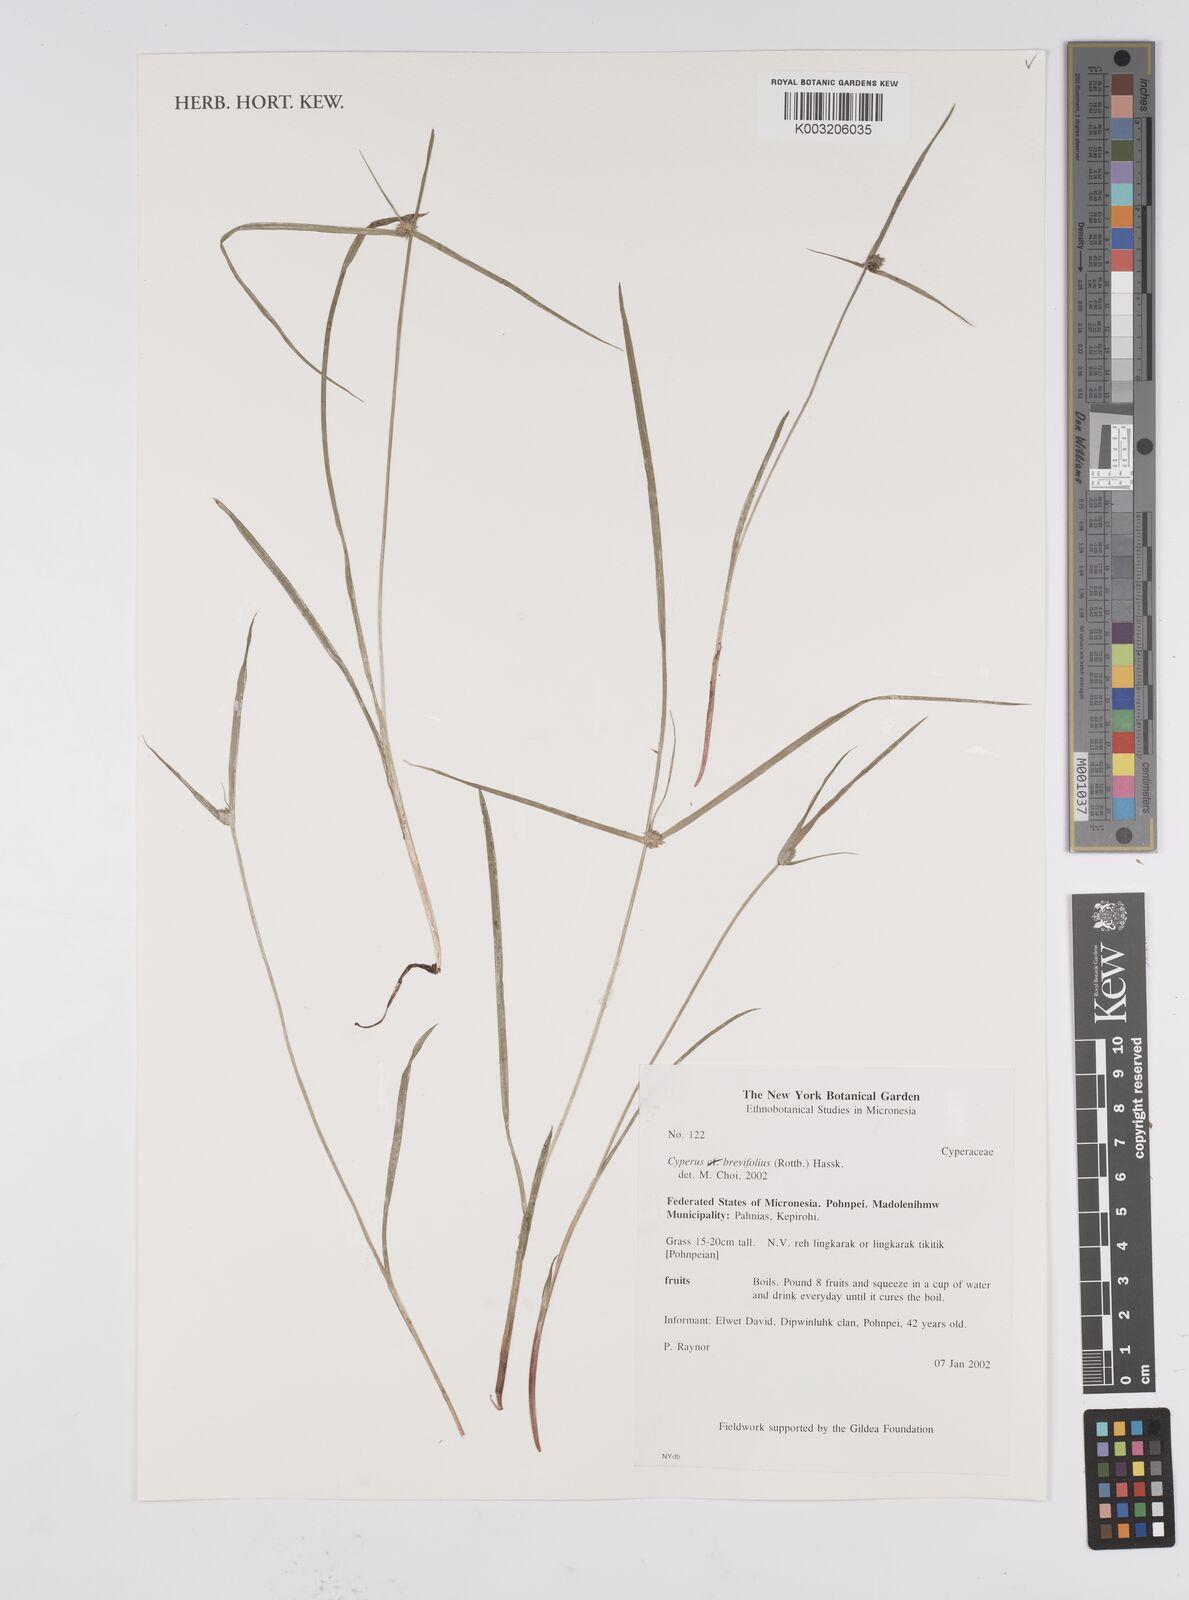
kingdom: Plantae
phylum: Tracheophyta
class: Liliopsida
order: Poales
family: Cyperaceae
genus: Cyperus
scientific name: Cyperus brevifolius
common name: Globe kyllinga
